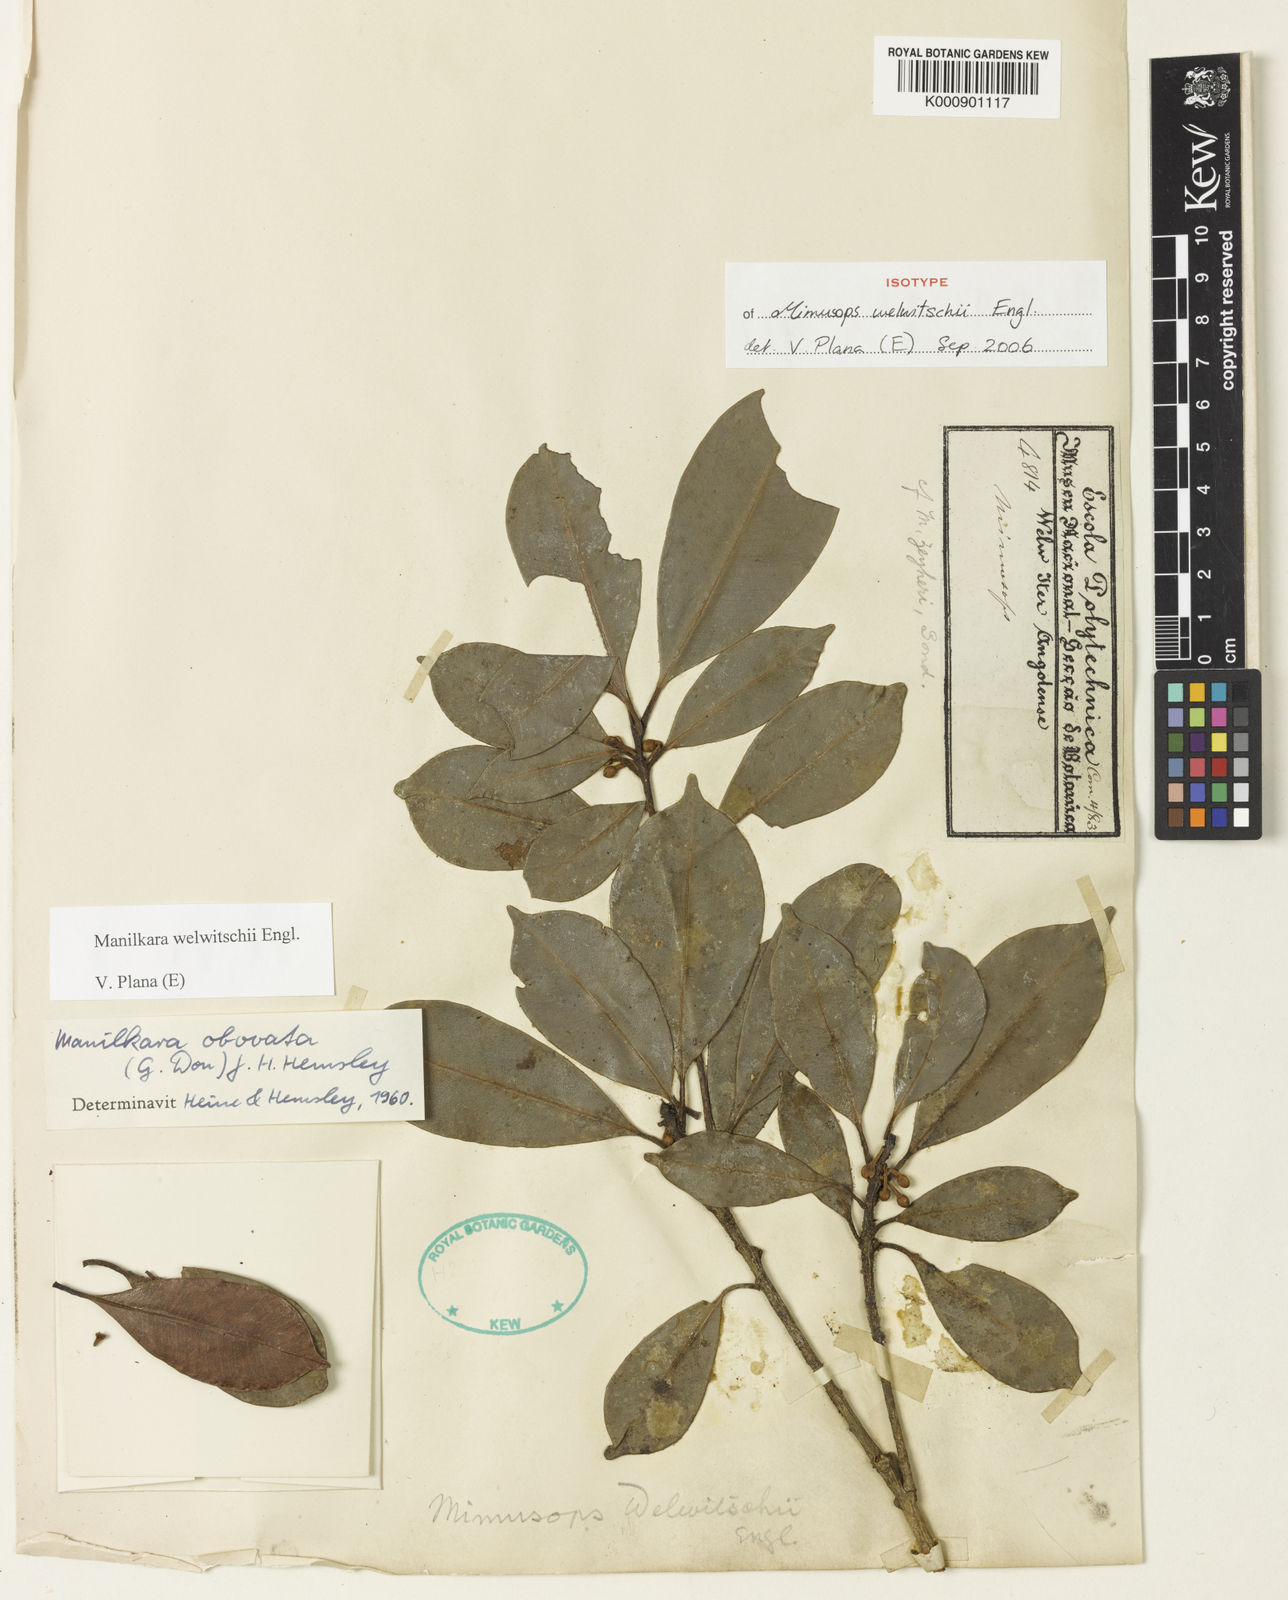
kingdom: Plantae
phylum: Tracheophyta
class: Magnoliopsida
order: Ericales
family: Sapotaceae
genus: Manilkara
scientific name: Manilkara obovata
